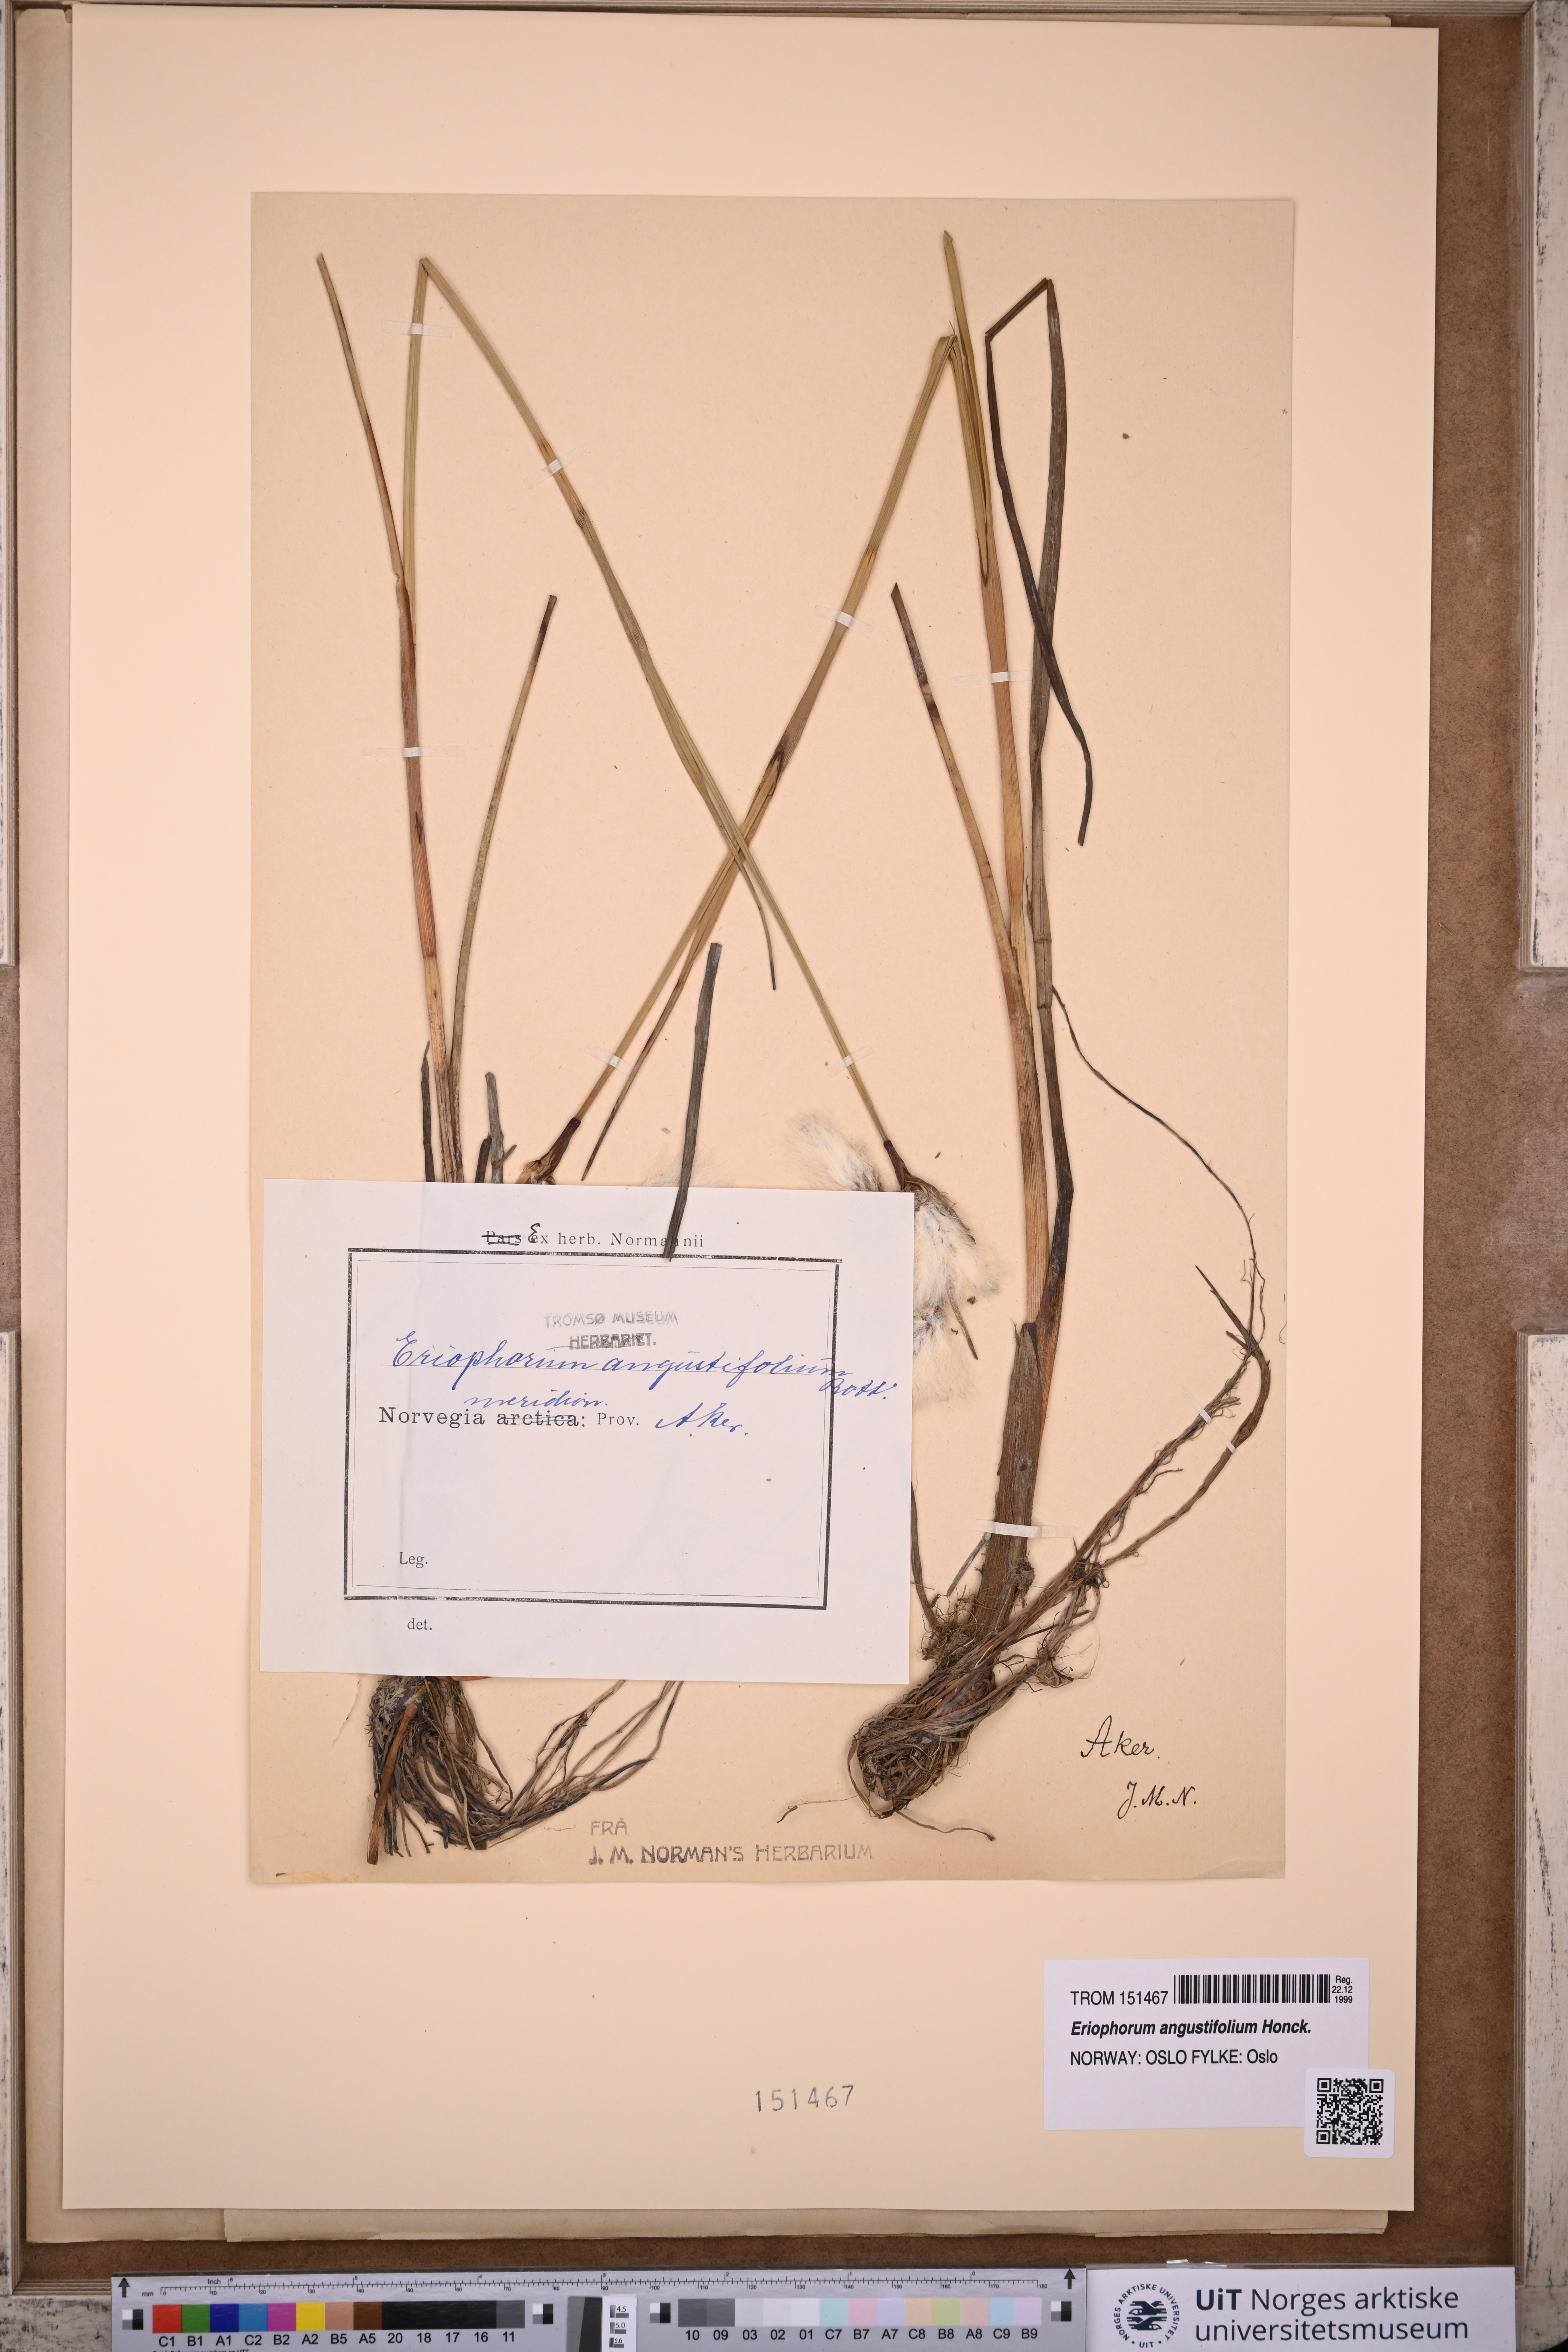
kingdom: Plantae
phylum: Tracheophyta
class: Liliopsida
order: Poales
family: Cyperaceae
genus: Eriophorum
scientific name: Eriophorum angustifolium
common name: Common cottongrass
